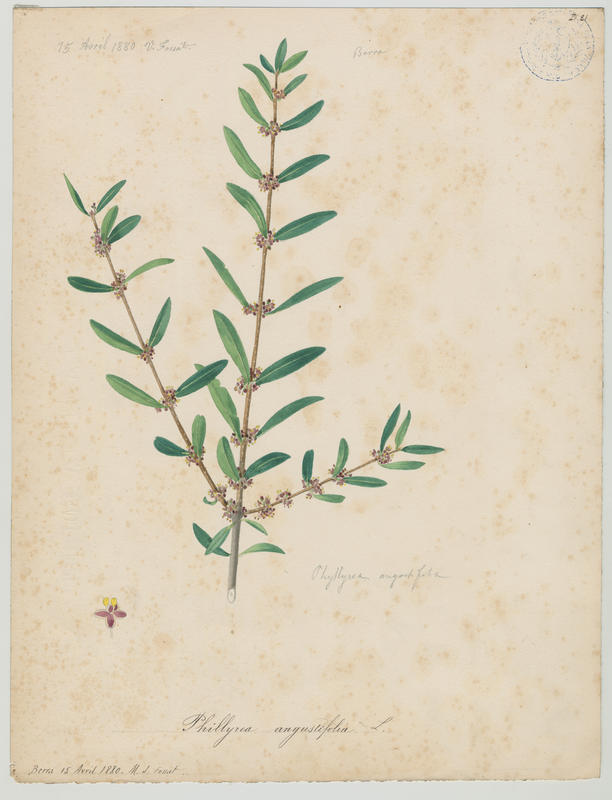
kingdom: Plantae
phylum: Tracheophyta
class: Magnoliopsida
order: Lamiales
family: Oleaceae
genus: Phillyrea
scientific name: Phillyrea angustifolia
